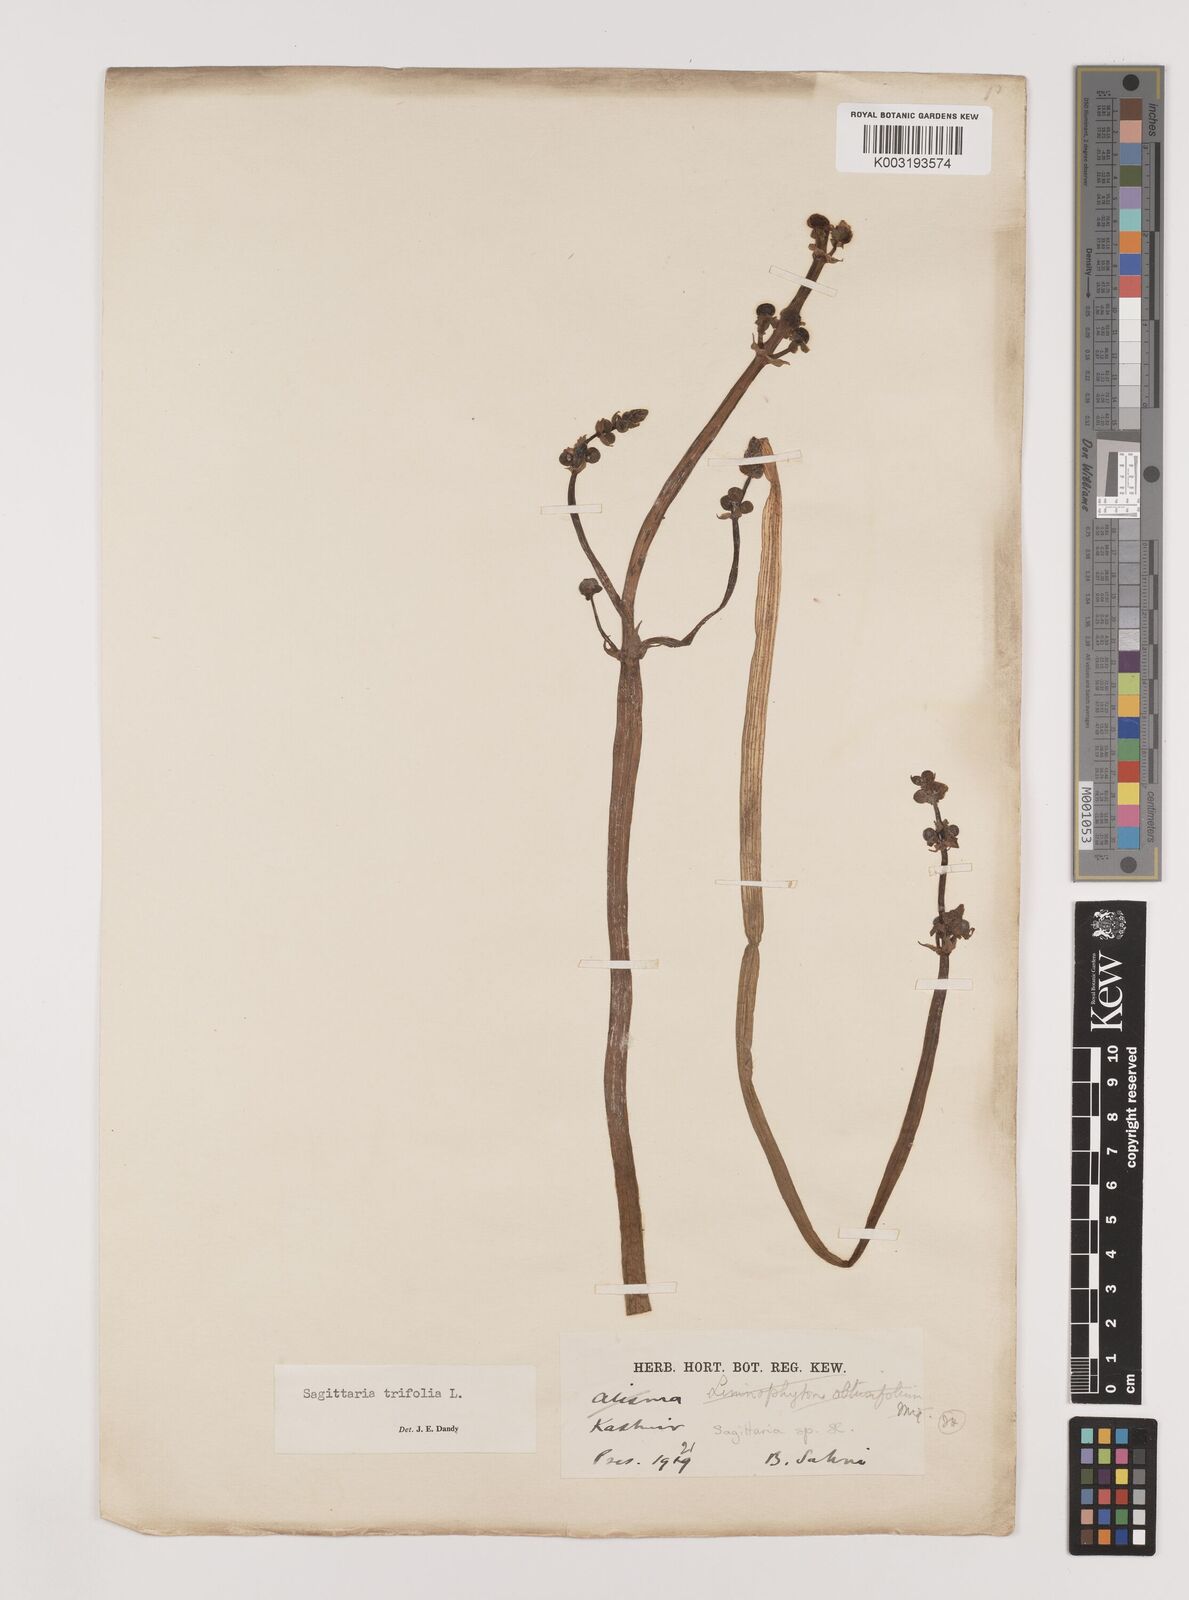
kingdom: Plantae
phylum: Tracheophyta
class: Liliopsida
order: Alismatales
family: Alismataceae
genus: Sagittaria
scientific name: Sagittaria sagittifolia
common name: Arrowhead
